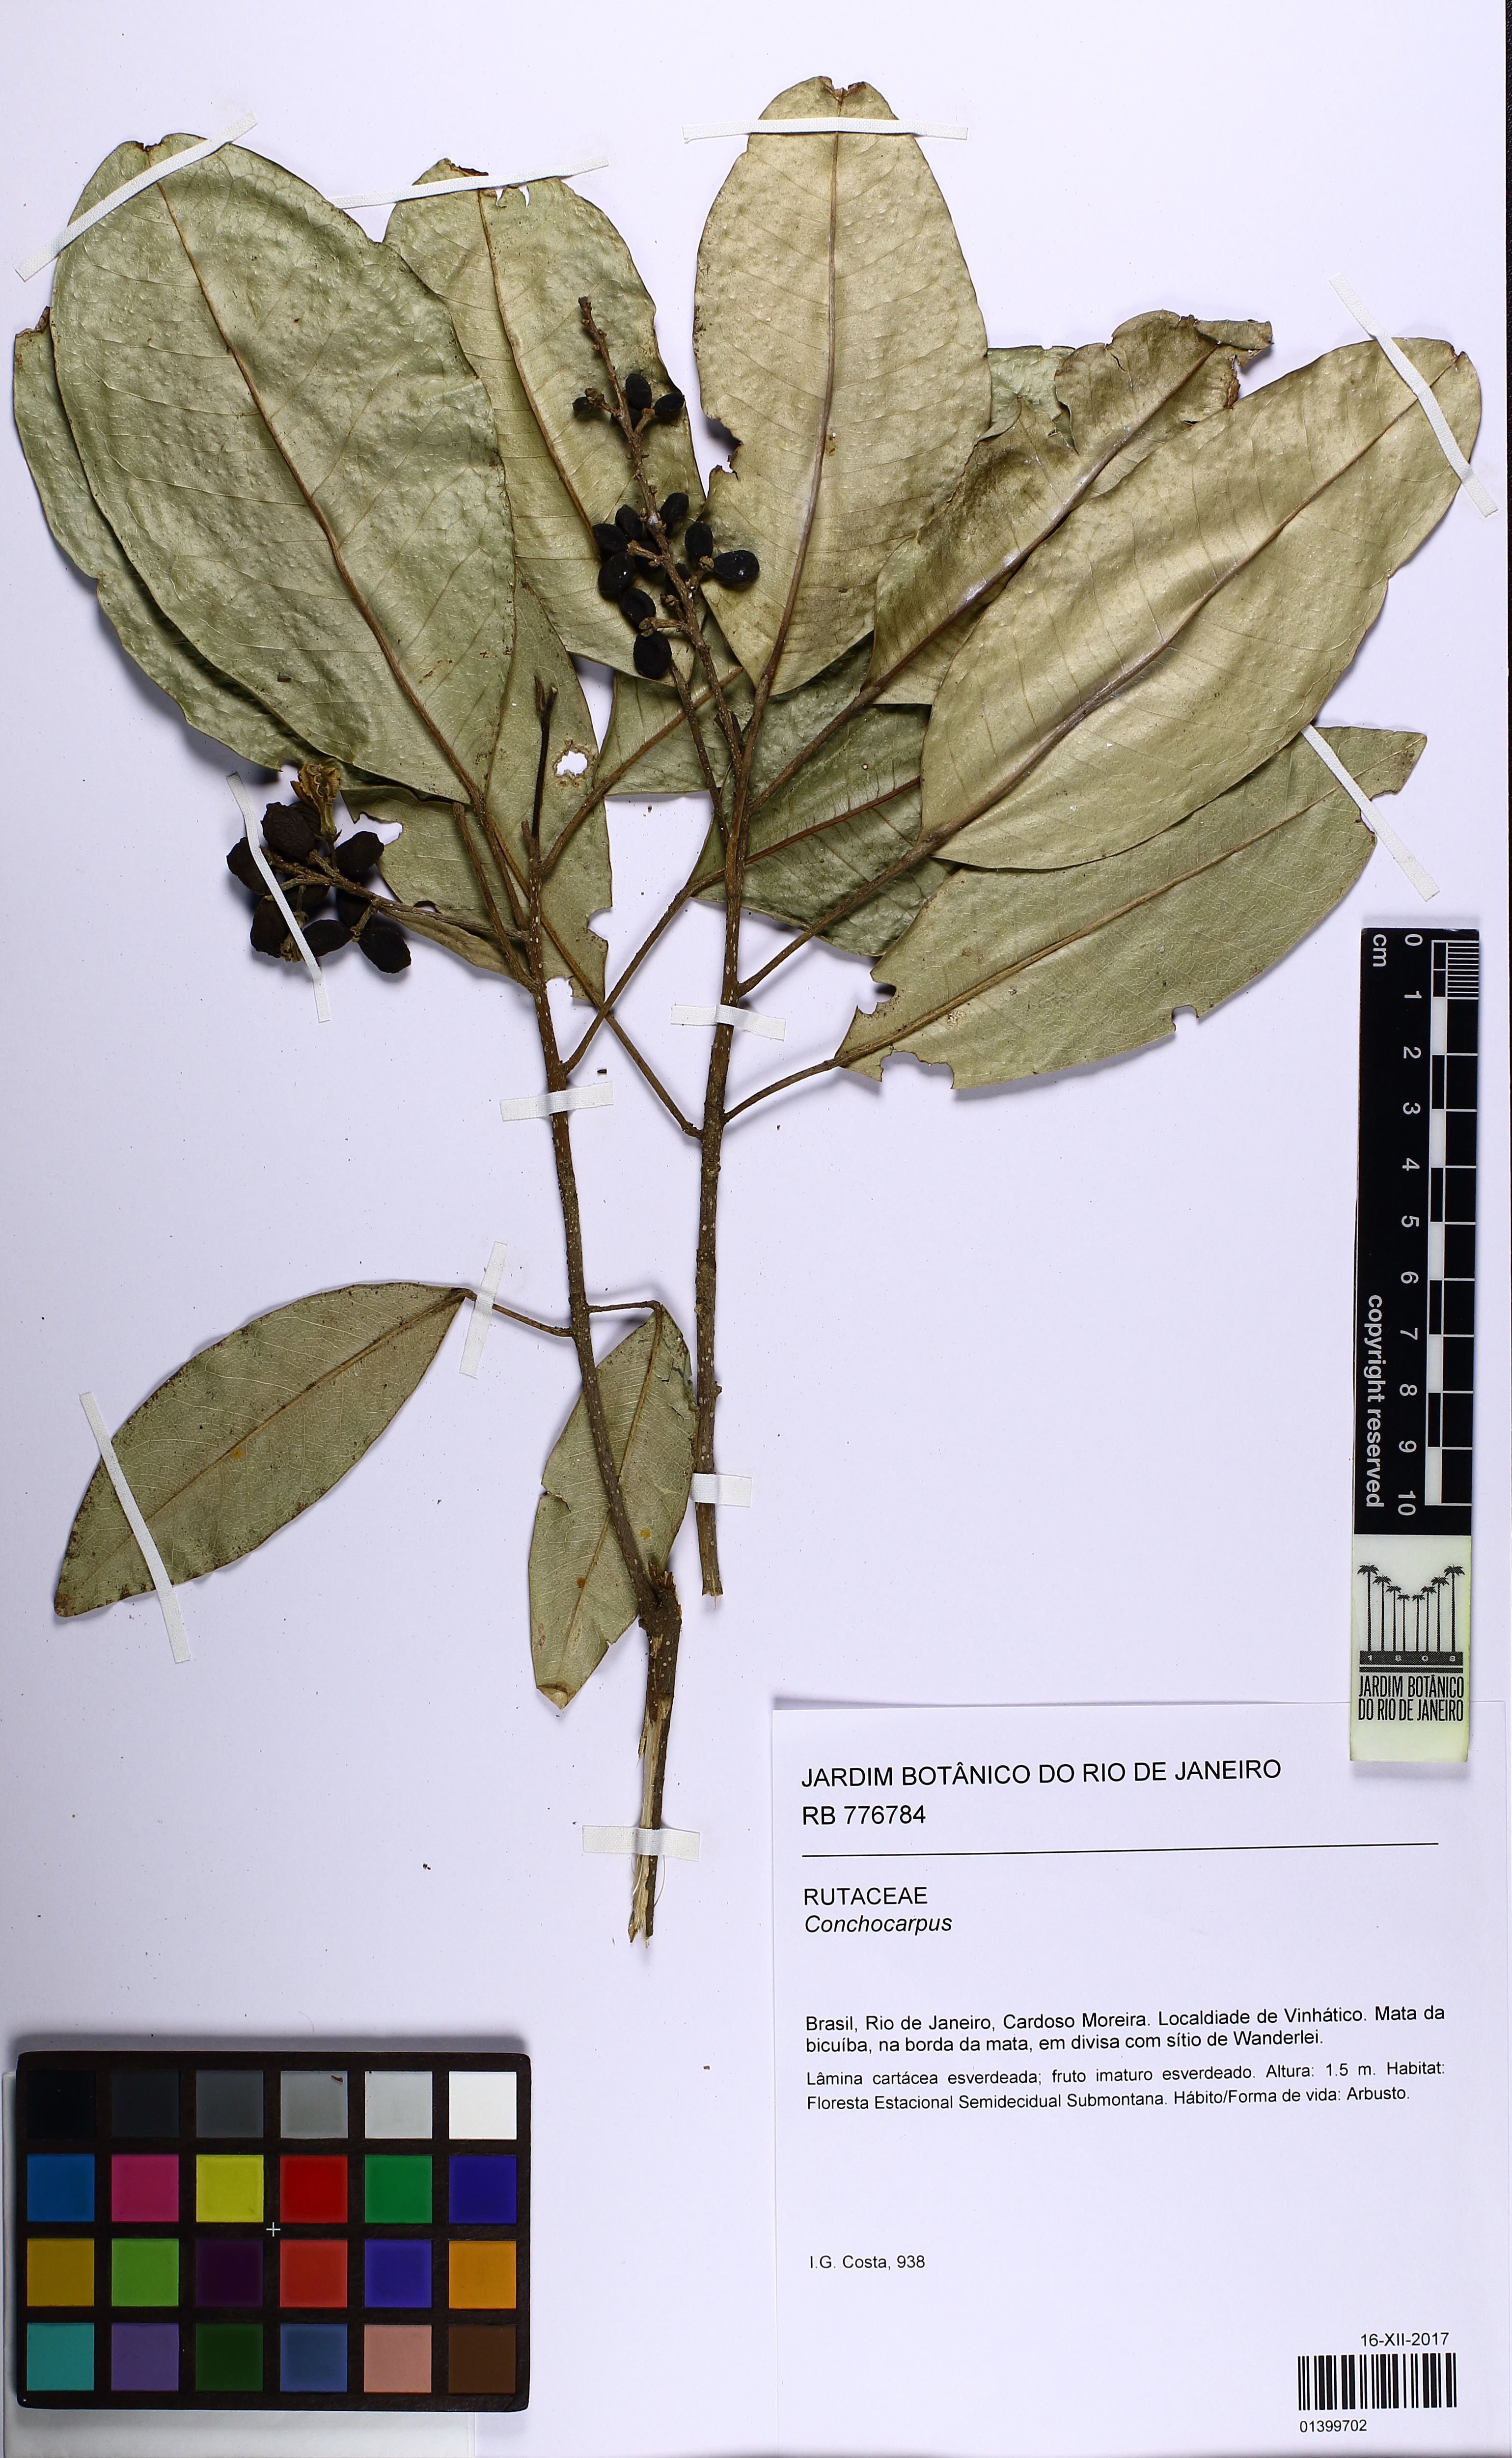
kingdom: Plantae
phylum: Tracheophyta
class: Magnoliopsida
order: Sapindales
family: Rutaceae
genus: Conchocarpus
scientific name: Conchocarpus ovatus
